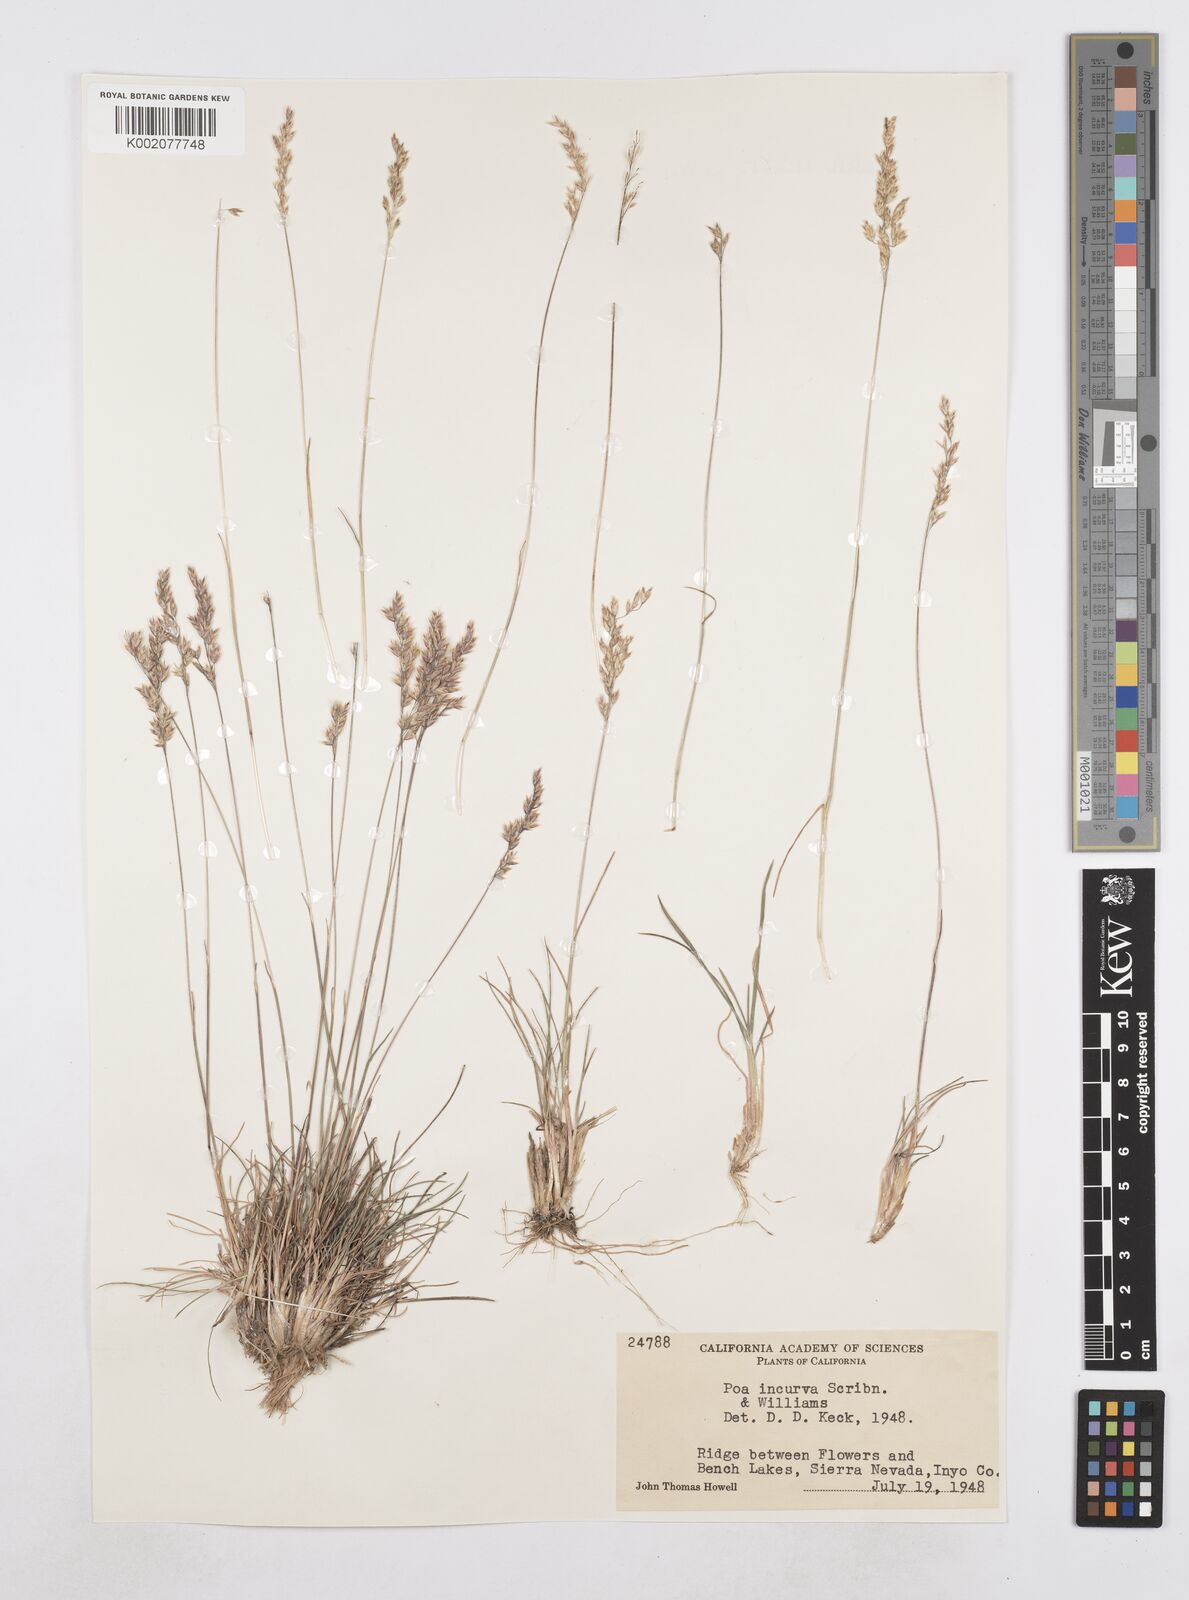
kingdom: Plantae
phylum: Tracheophyta
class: Liliopsida
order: Poales
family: Poaceae
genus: Poa
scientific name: Poa secunda
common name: Sandberg bluegrass
